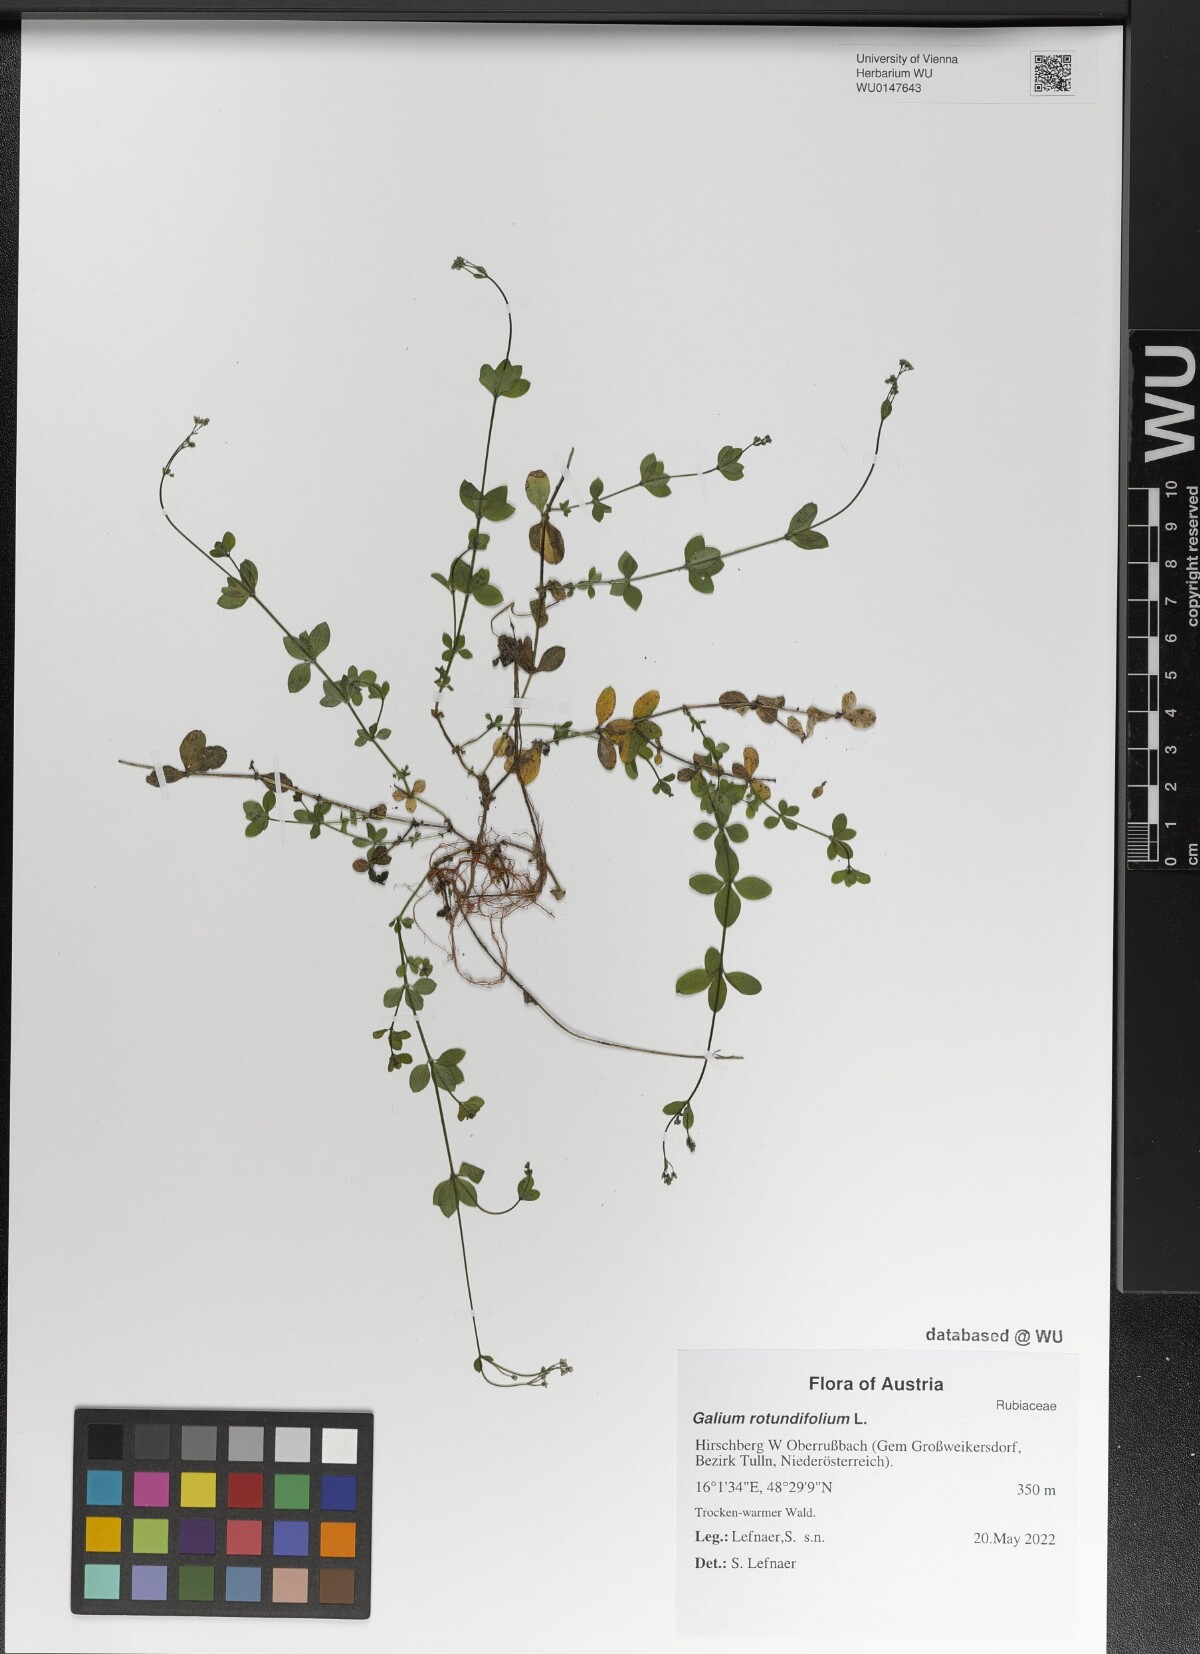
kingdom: Plantae
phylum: Tracheophyta
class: Magnoliopsida
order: Gentianales
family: Rubiaceae
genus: Galium
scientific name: Galium rotundifolium
